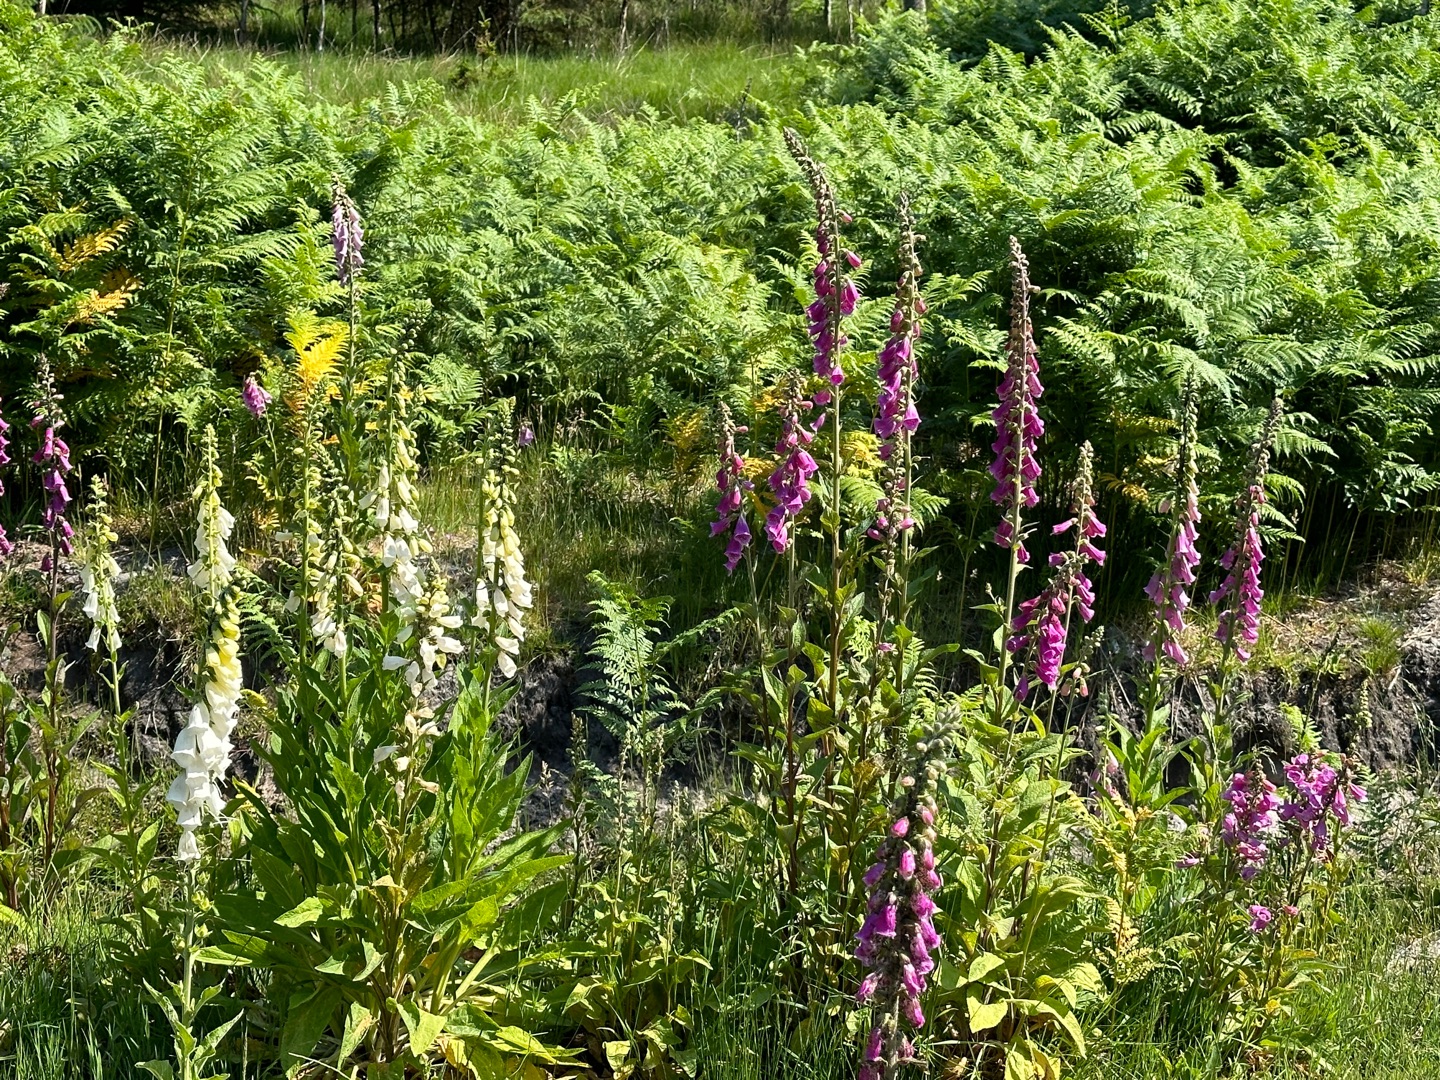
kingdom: Plantae
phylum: Tracheophyta
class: Magnoliopsida
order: Lamiales
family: Plantaginaceae
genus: Digitalis
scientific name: Digitalis purpurea
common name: Almindelig fingerbøl
